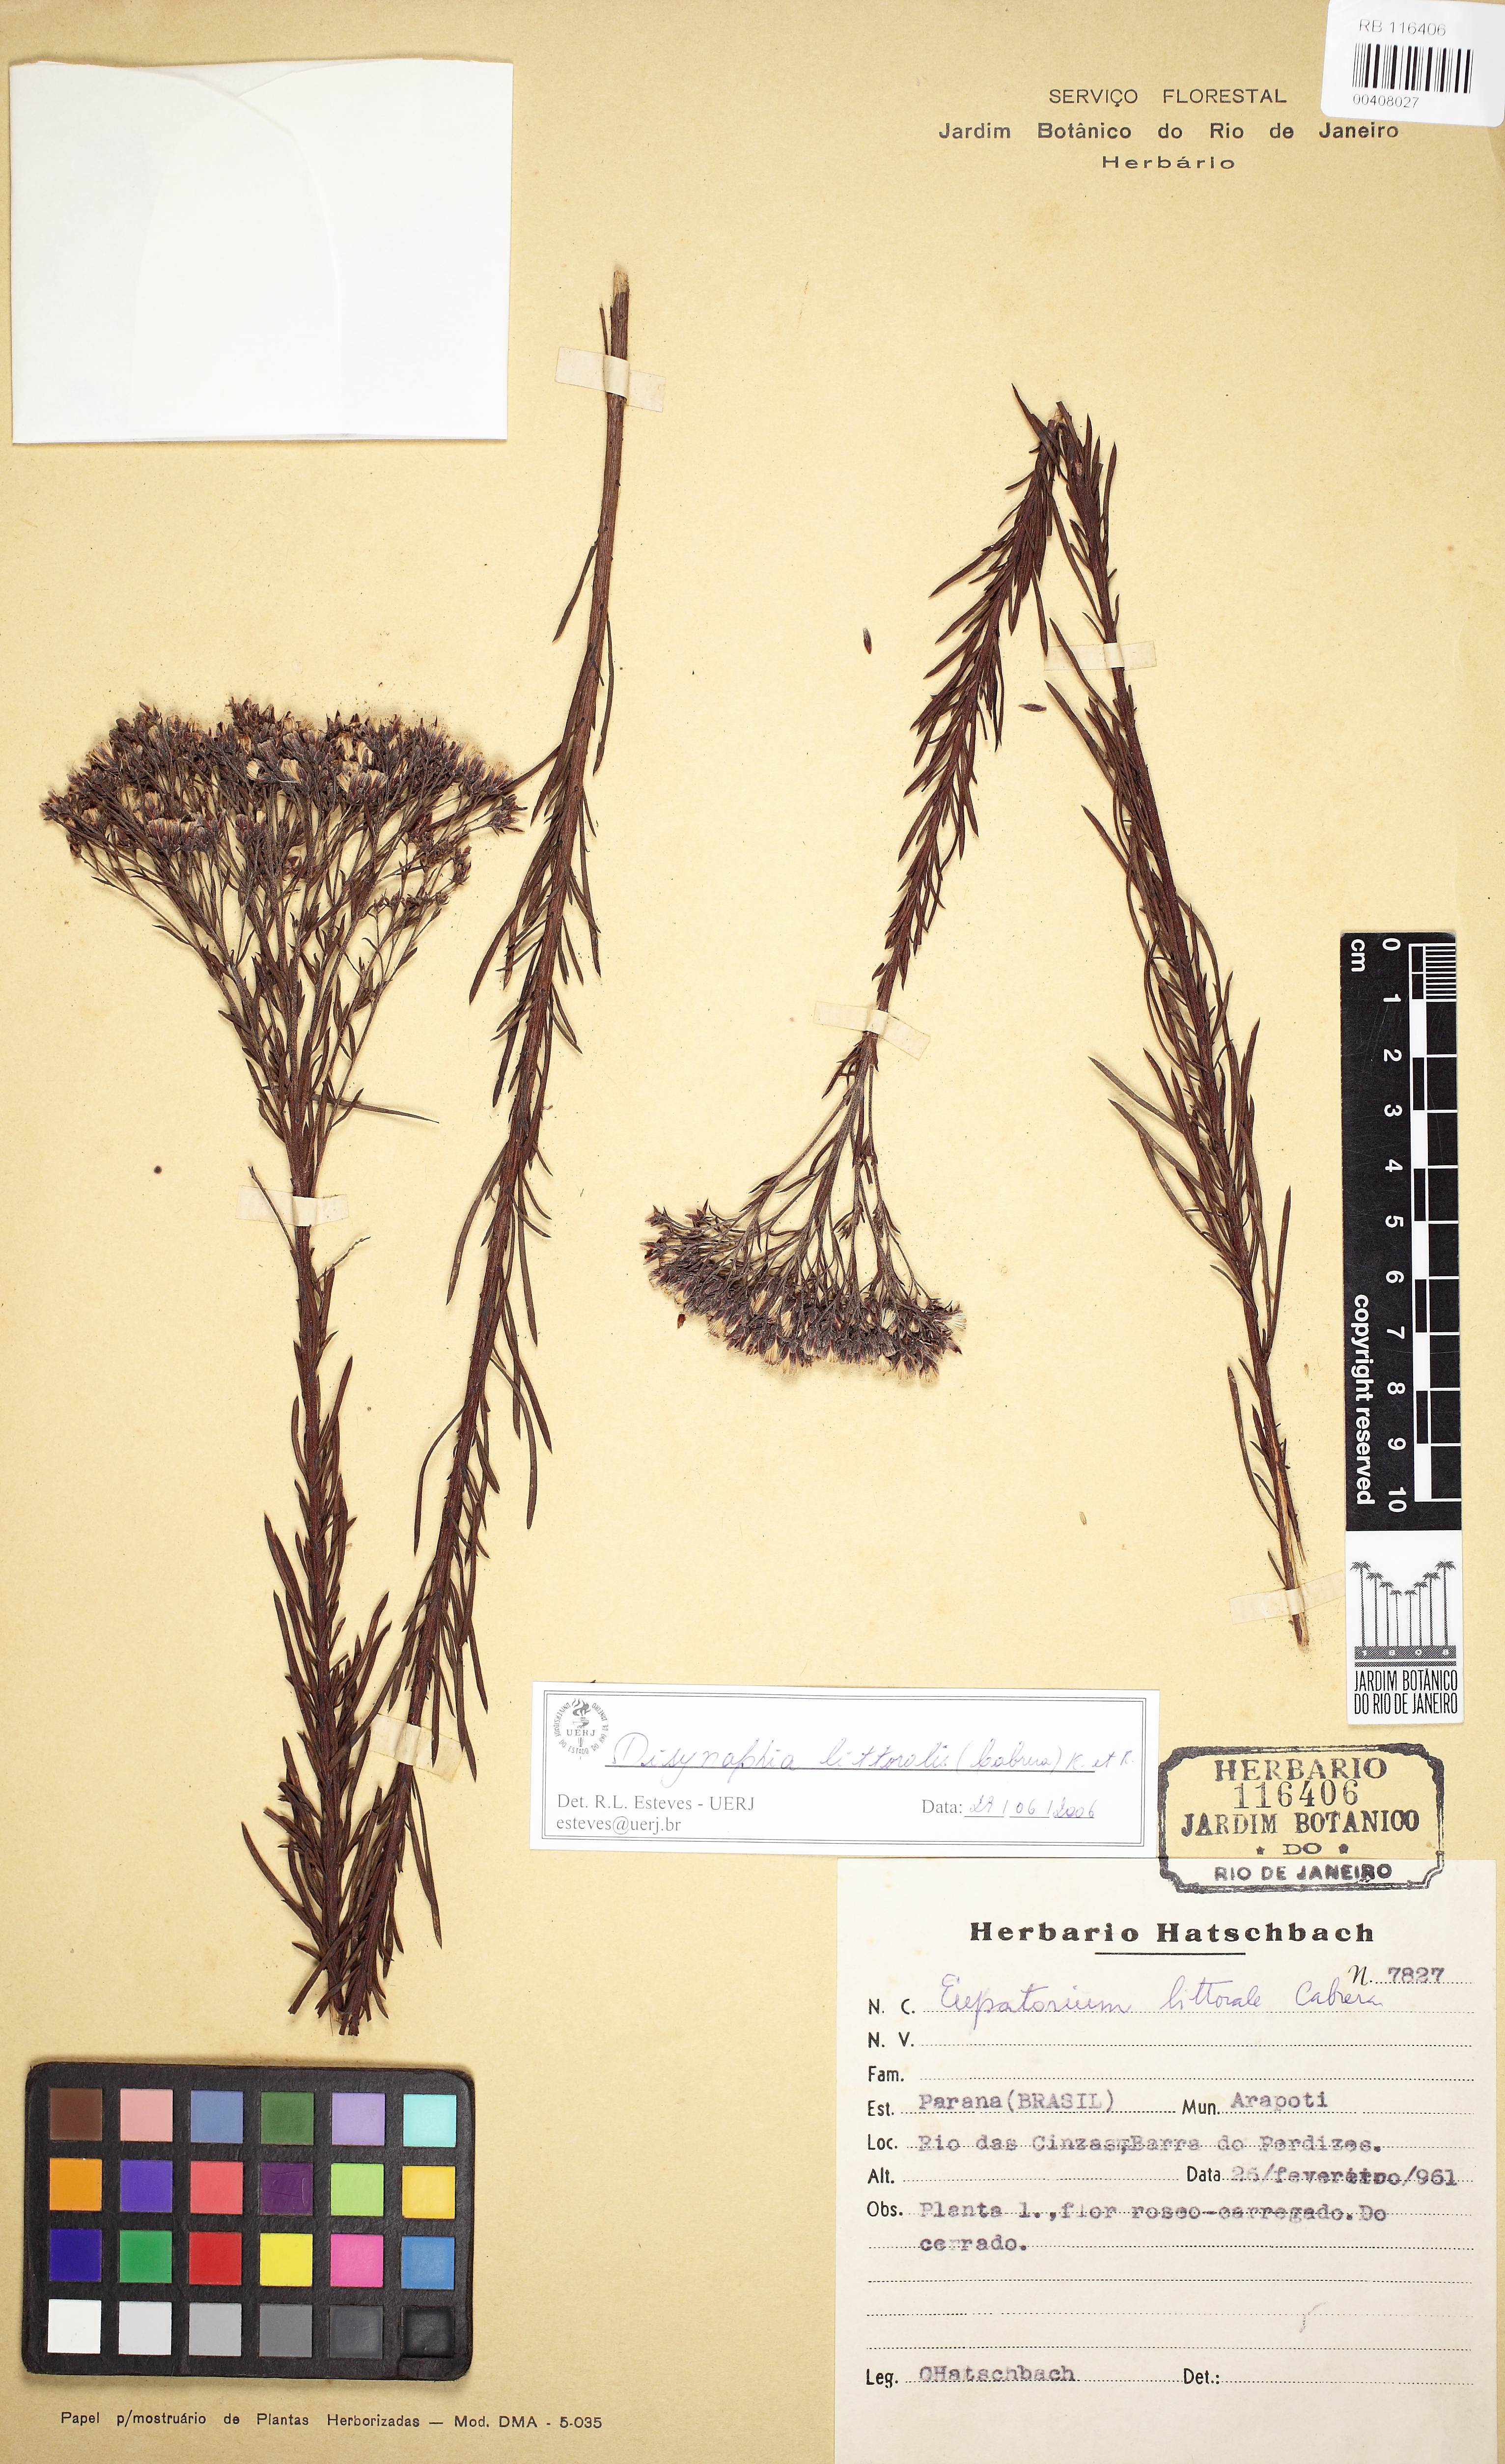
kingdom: Plantae
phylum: Tracheophyta
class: Magnoliopsida
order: Asterales
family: Asteraceae
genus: Disynaphia
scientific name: Disynaphia littoralis
